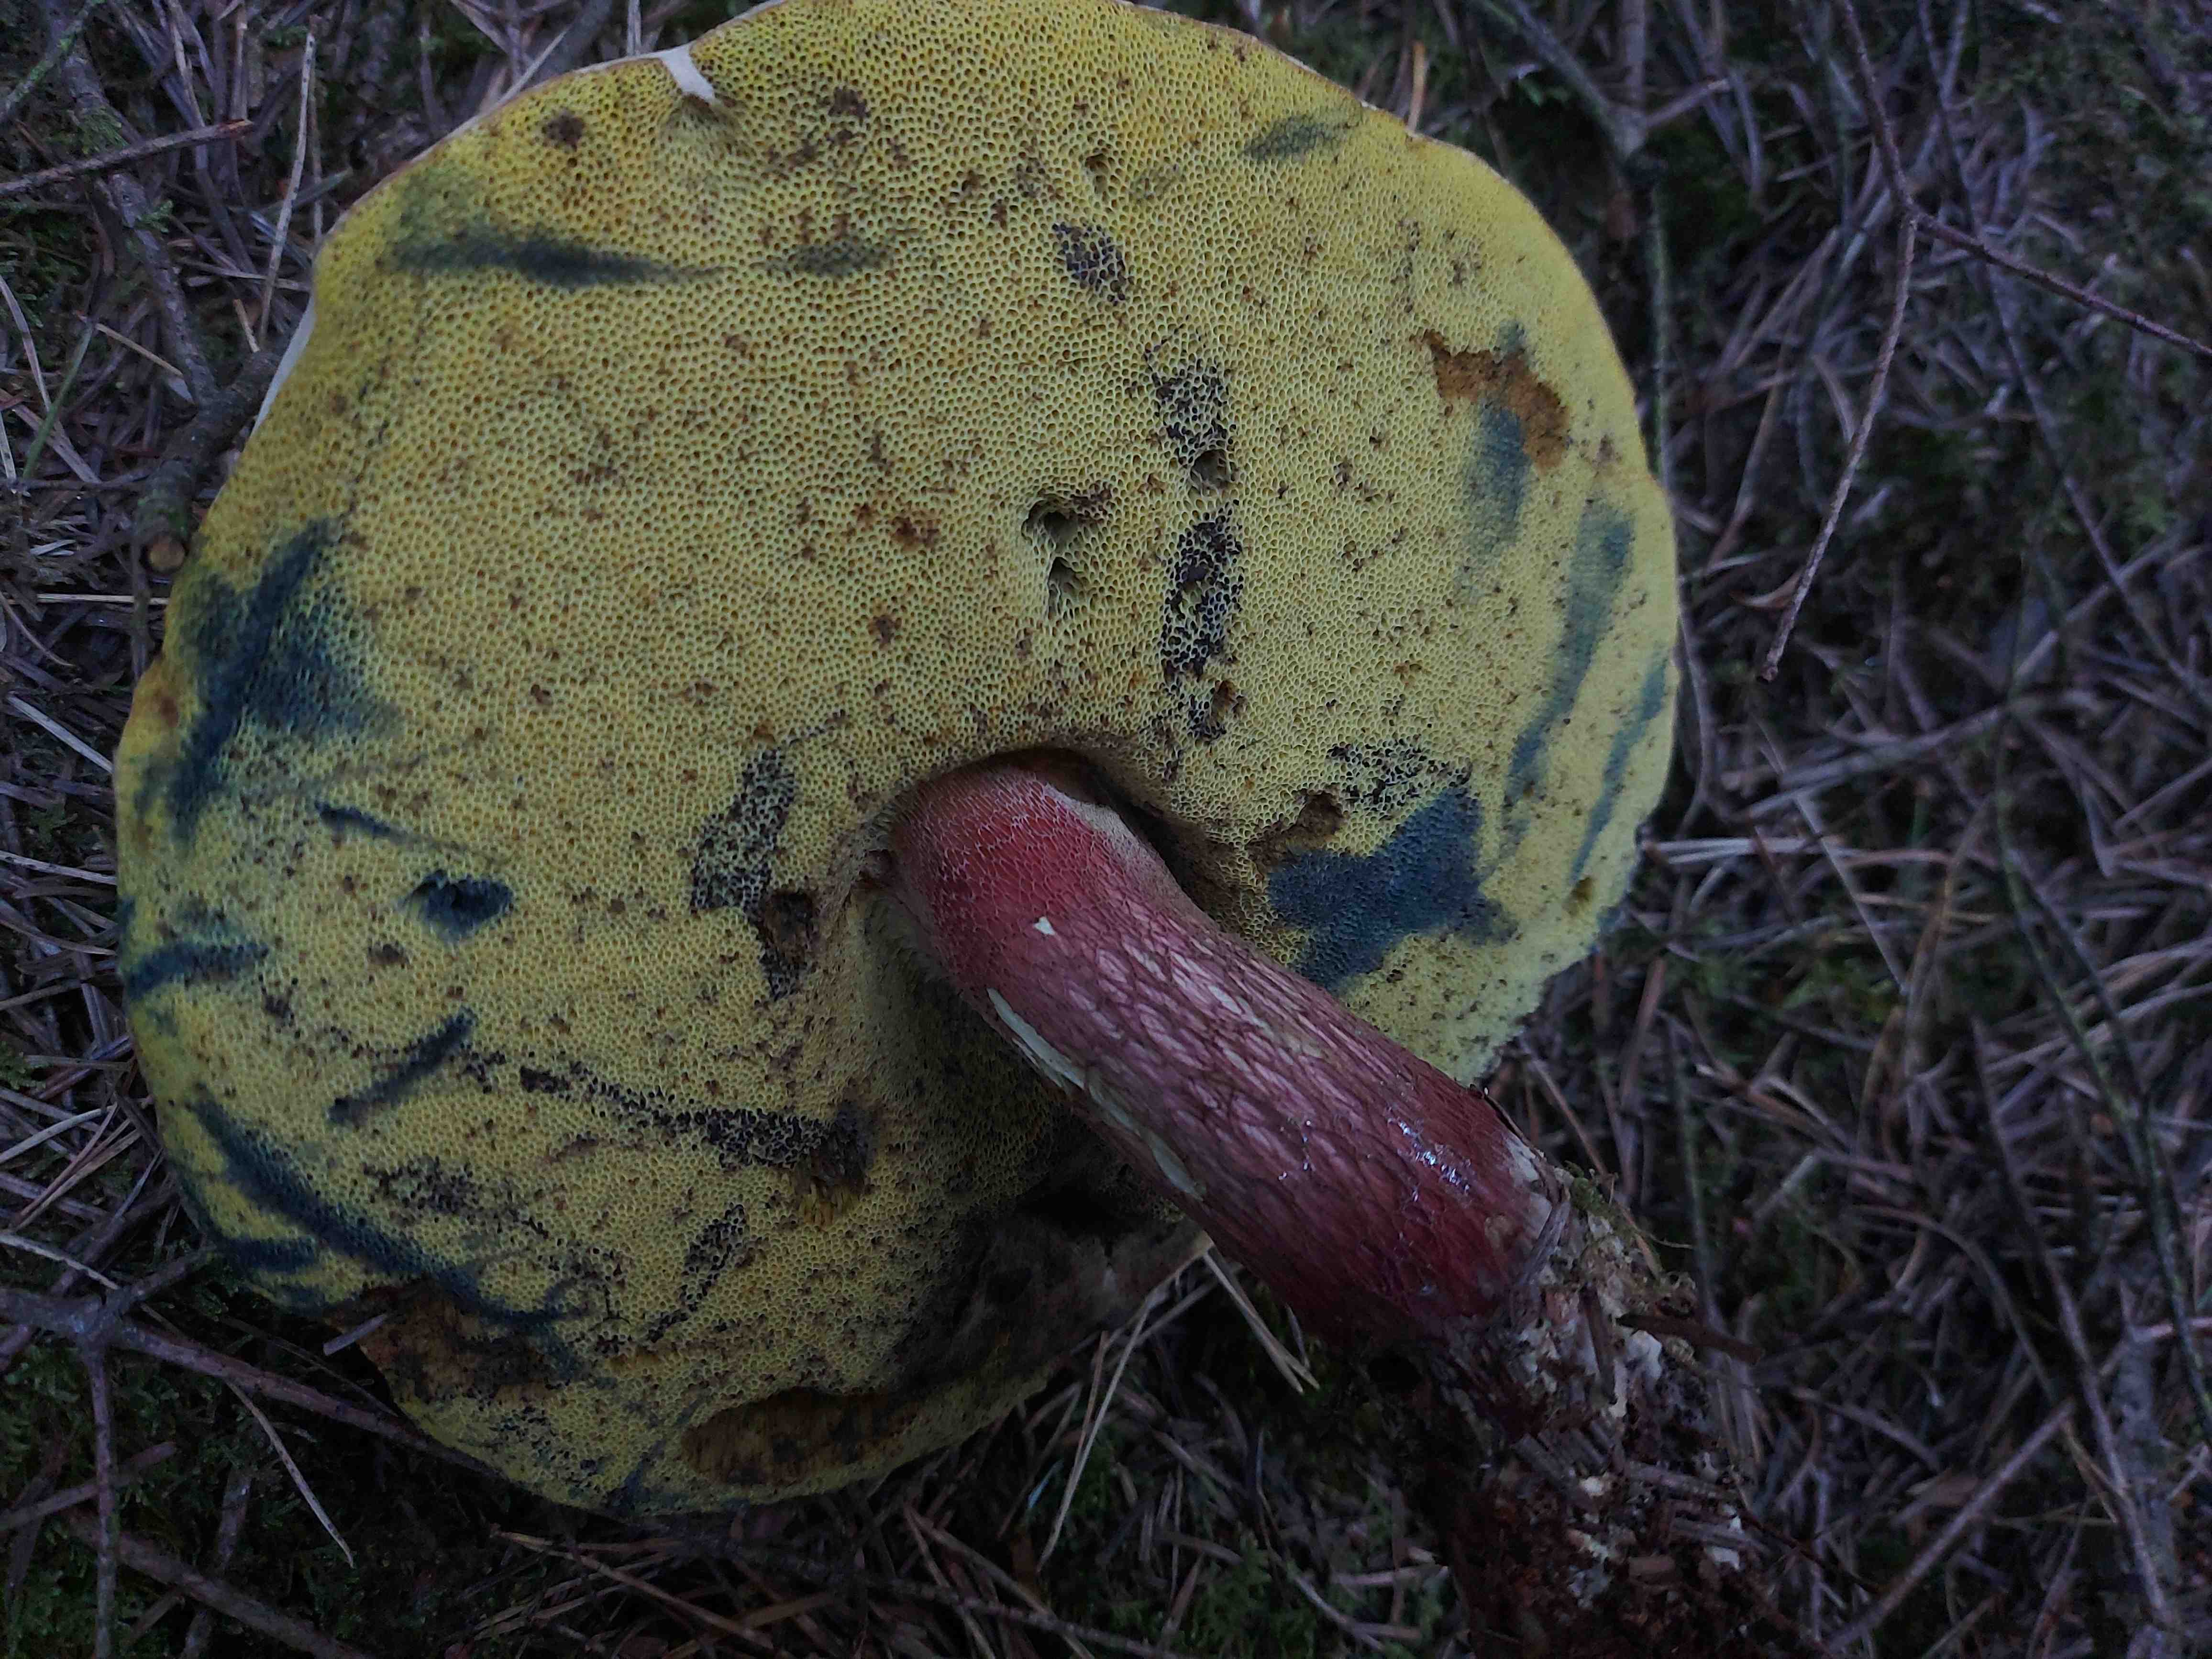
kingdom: Fungi
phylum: Basidiomycota
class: Agaricomycetes
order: Boletales
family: Boletaceae
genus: Caloboletus
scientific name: Caloboletus calopus
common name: skønfodet rørhat
